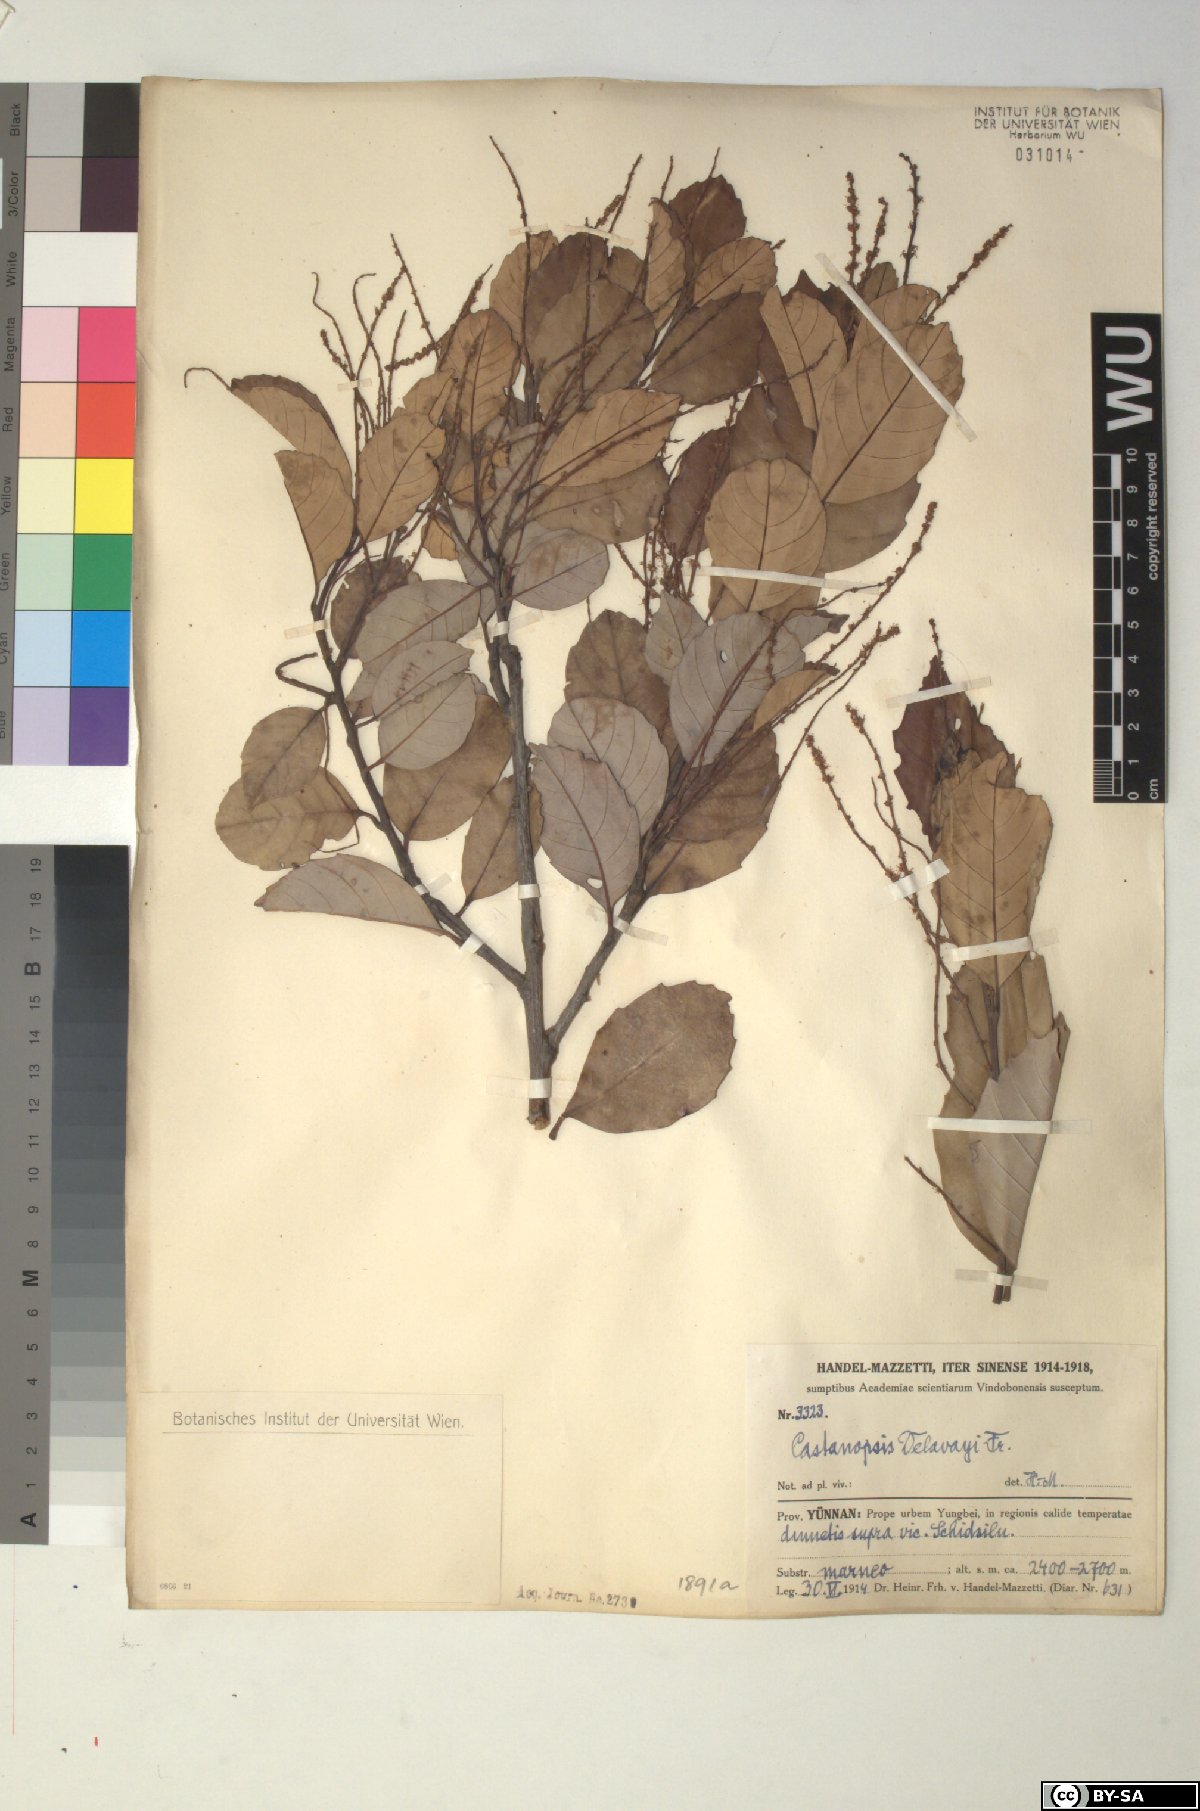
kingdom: Plantae
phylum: Tracheophyta
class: Magnoliopsida
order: Fagales
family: Fagaceae
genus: Castanopsis
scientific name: Castanopsis delavayi
